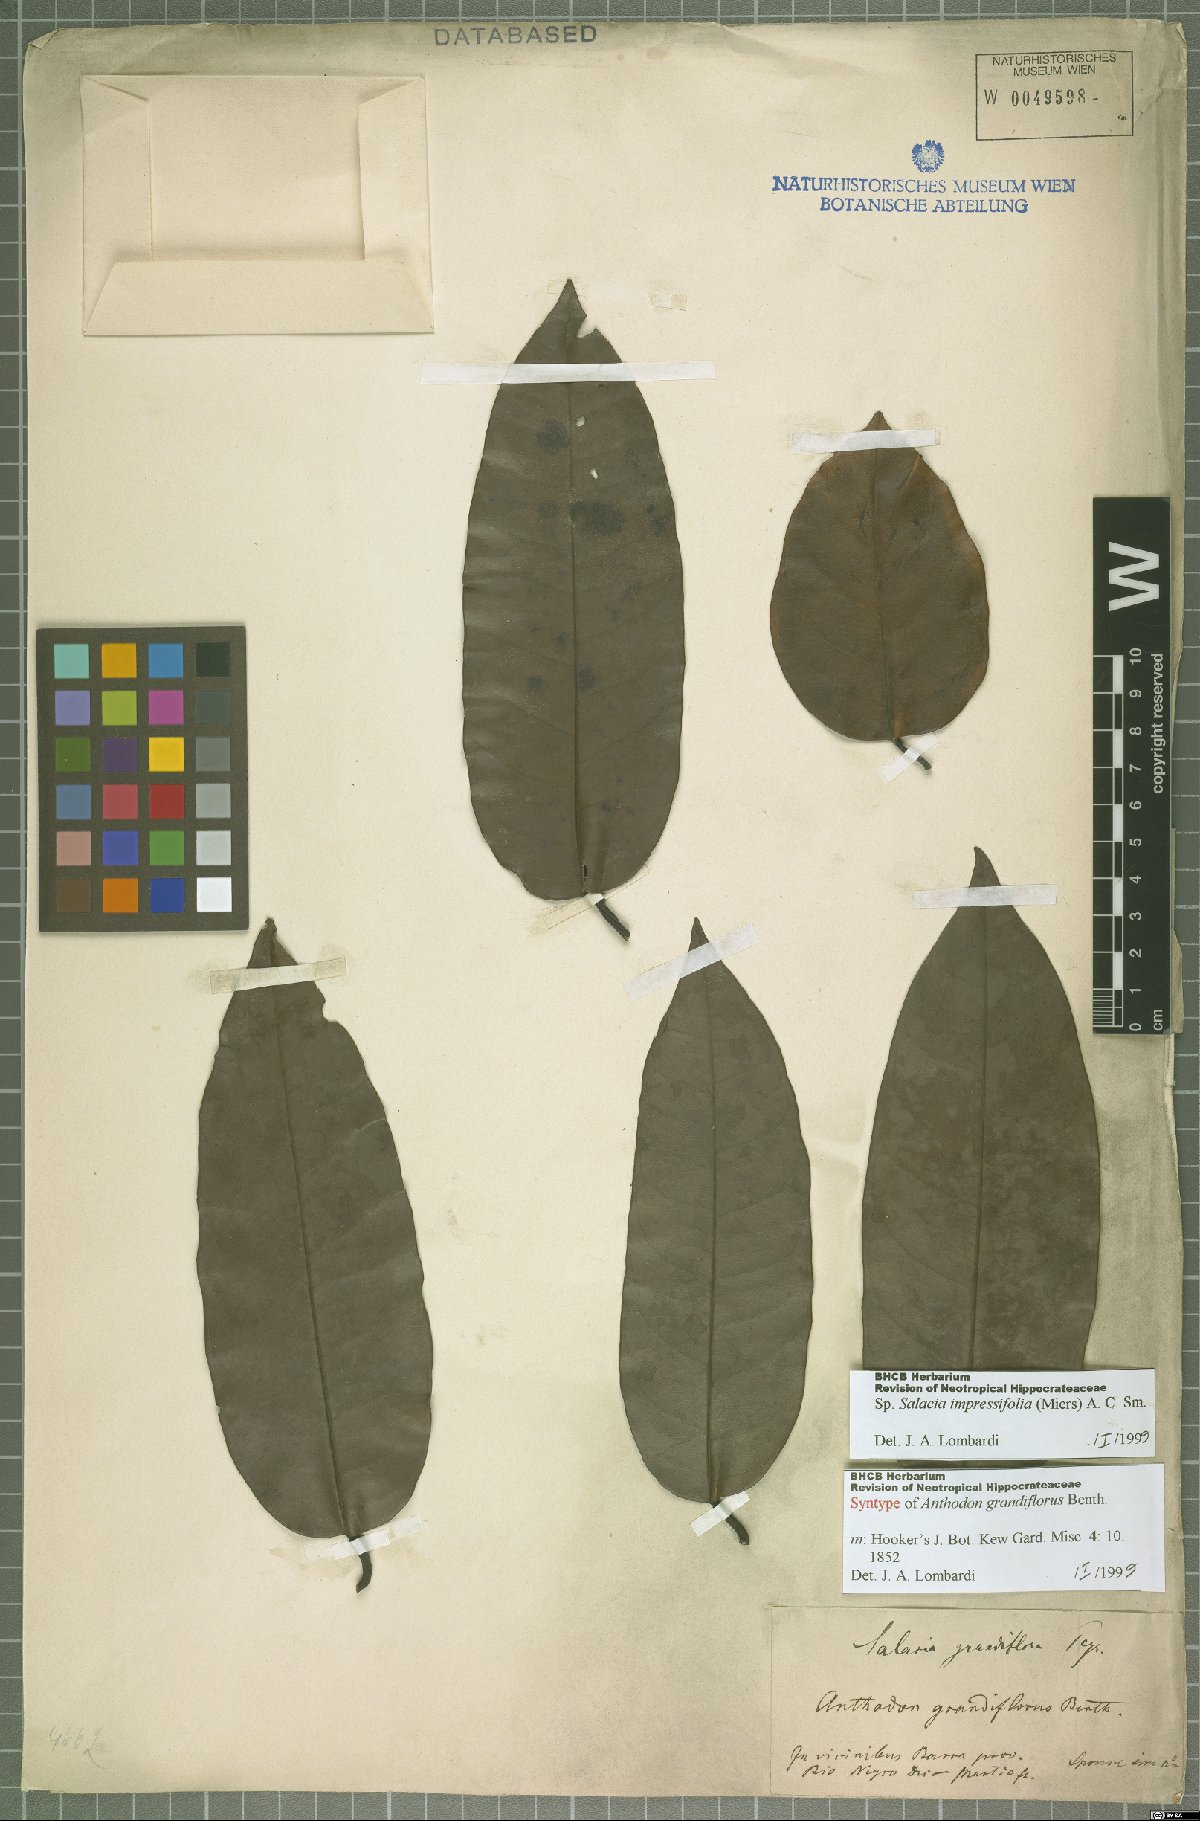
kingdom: Plantae
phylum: Tracheophyta
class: Magnoliopsida
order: Celastrales
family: Celastraceae
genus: Salacia
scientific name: Salacia impressifolia
